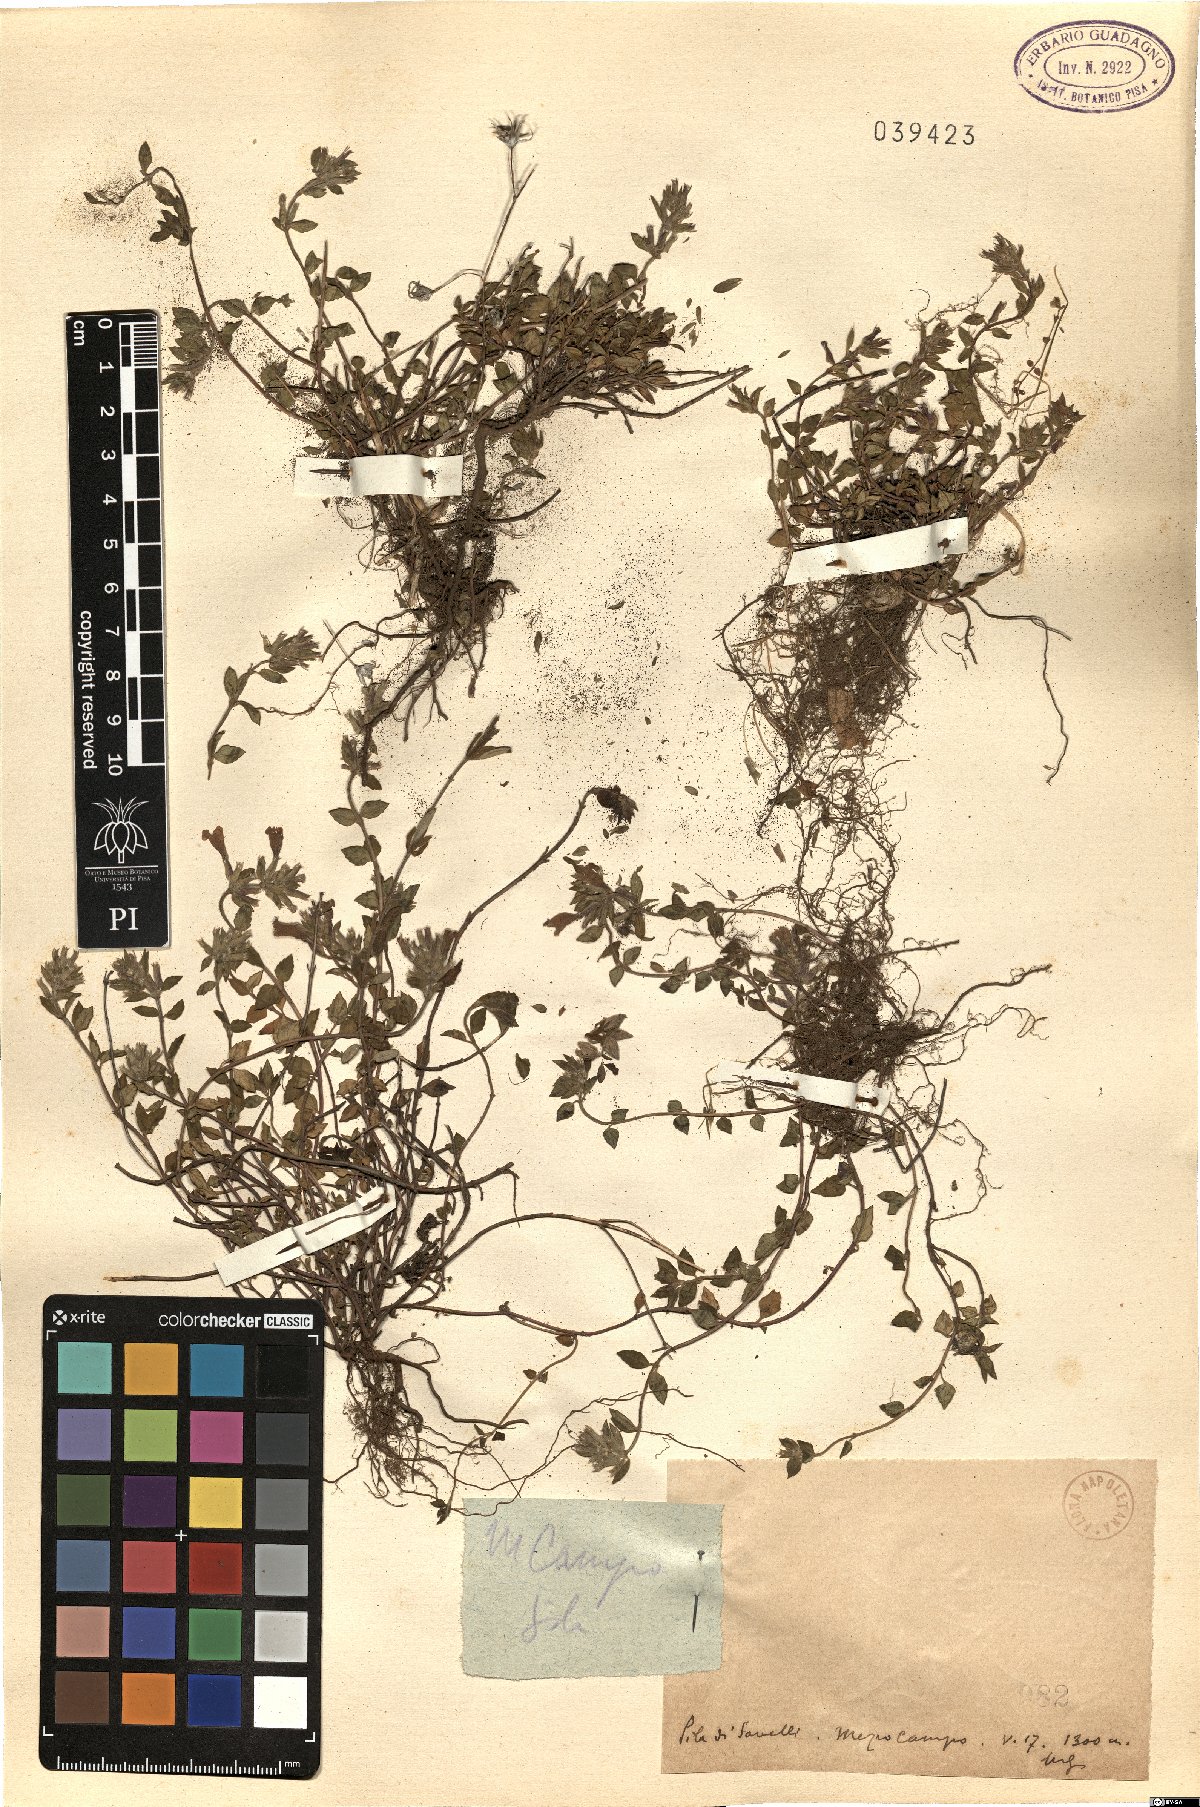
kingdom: Plantae
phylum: Tracheophyta
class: Magnoliopsida
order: Lamiales
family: Lamiaceae
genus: Calamintha
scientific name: Calamintha
